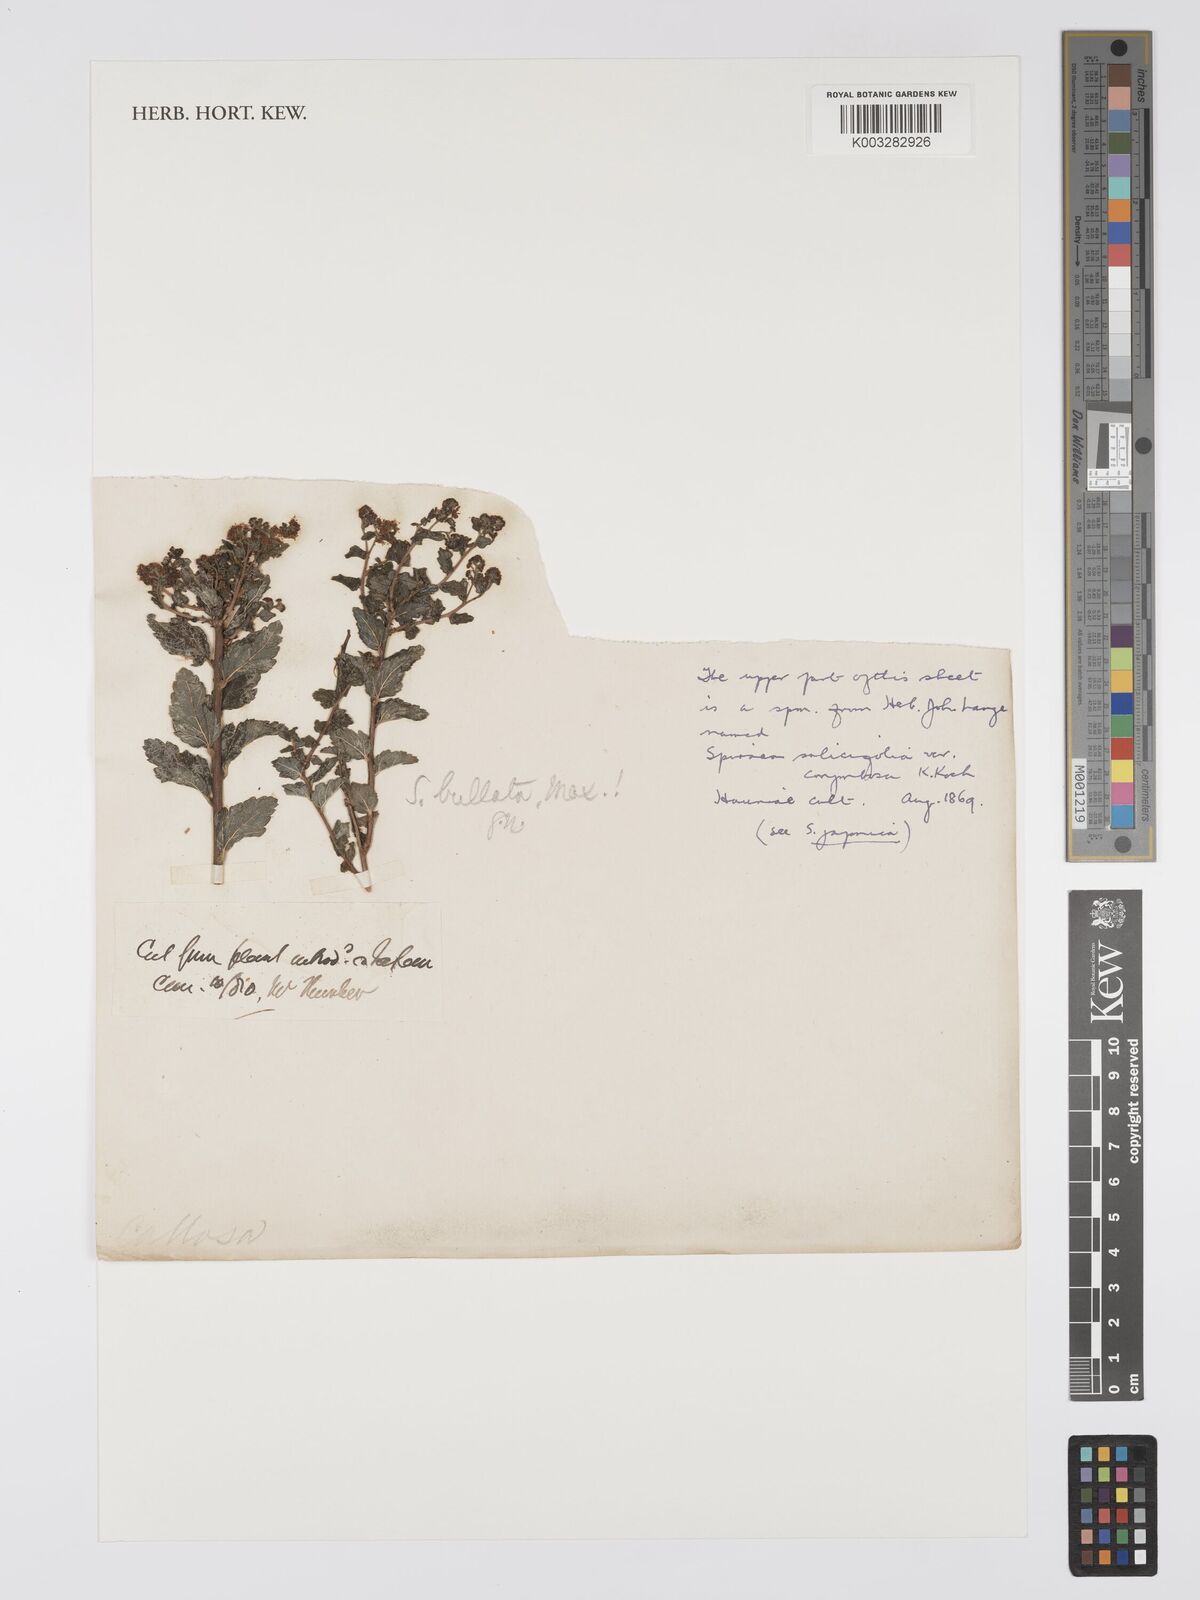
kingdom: Plantae
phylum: Tracheophyta
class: Magnoliopsida
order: Rosales
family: Rosaceae
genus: Spiraea
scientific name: Spiraea japonica
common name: Japanese spiraea
